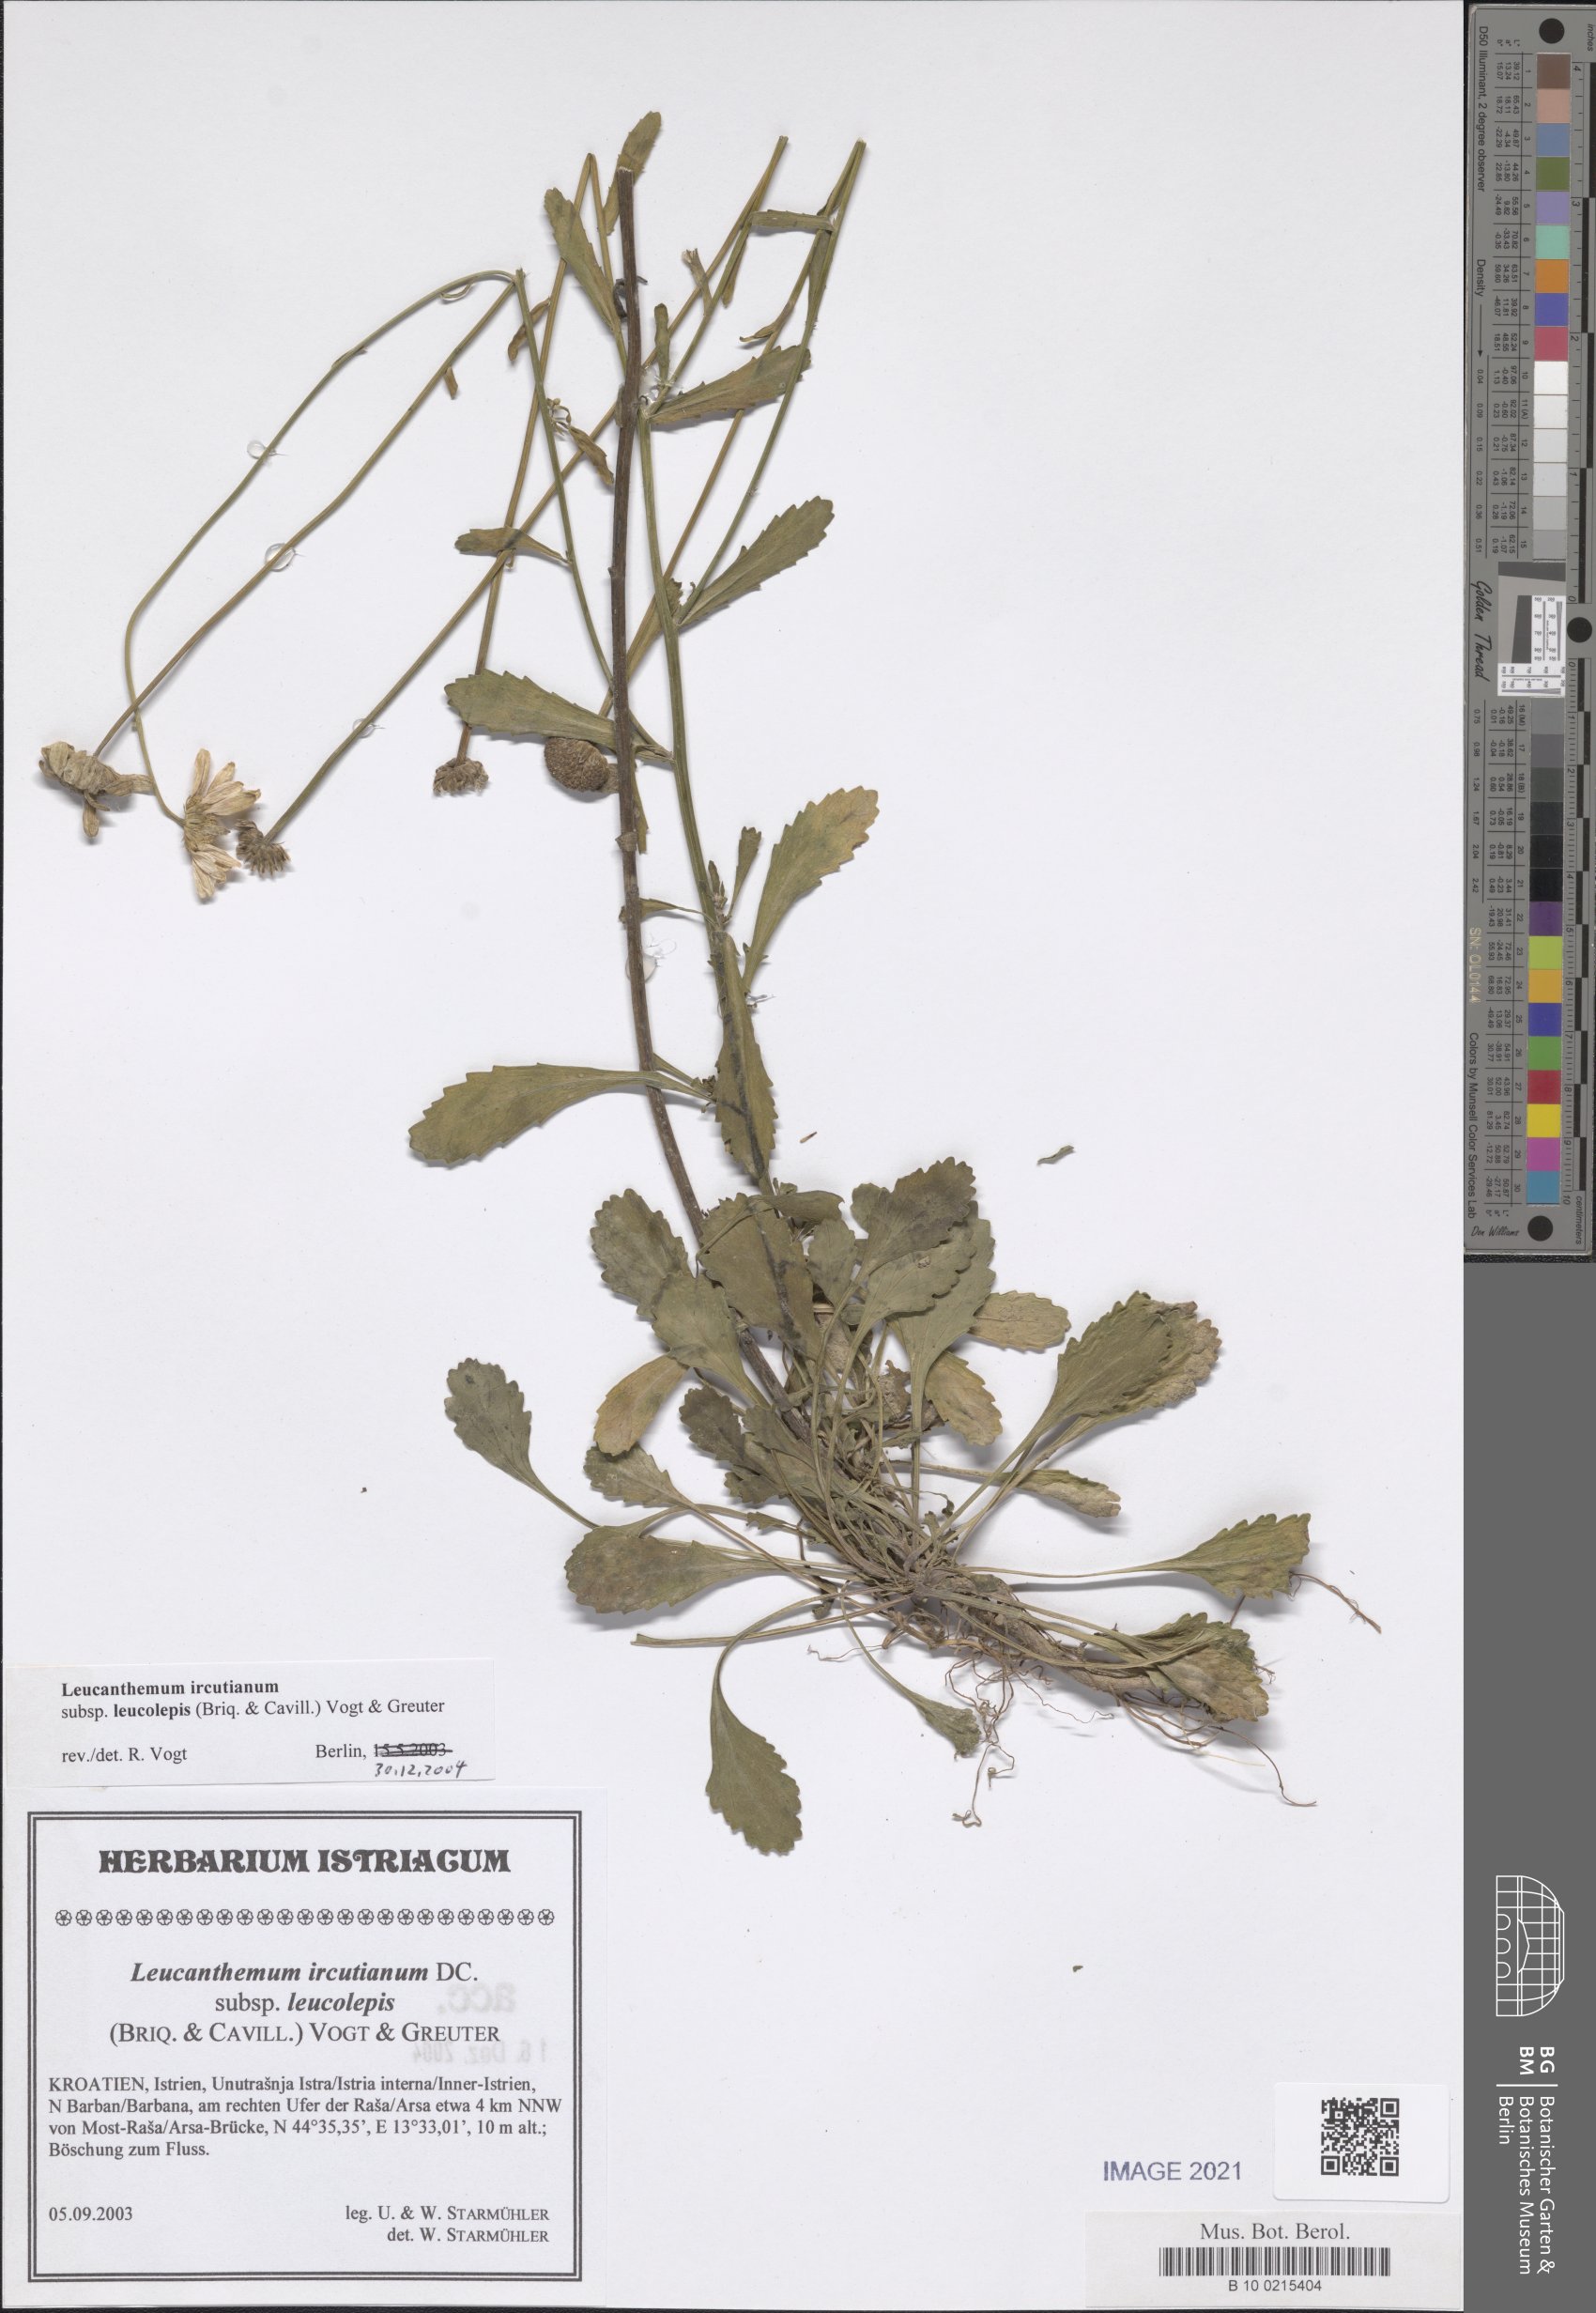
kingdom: Plantae
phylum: Tracheophyta
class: Magnoliopsida
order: Asterales
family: Asteraceae
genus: Leucanthemum
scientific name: Leucanthemum ircutianum
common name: Daisy
